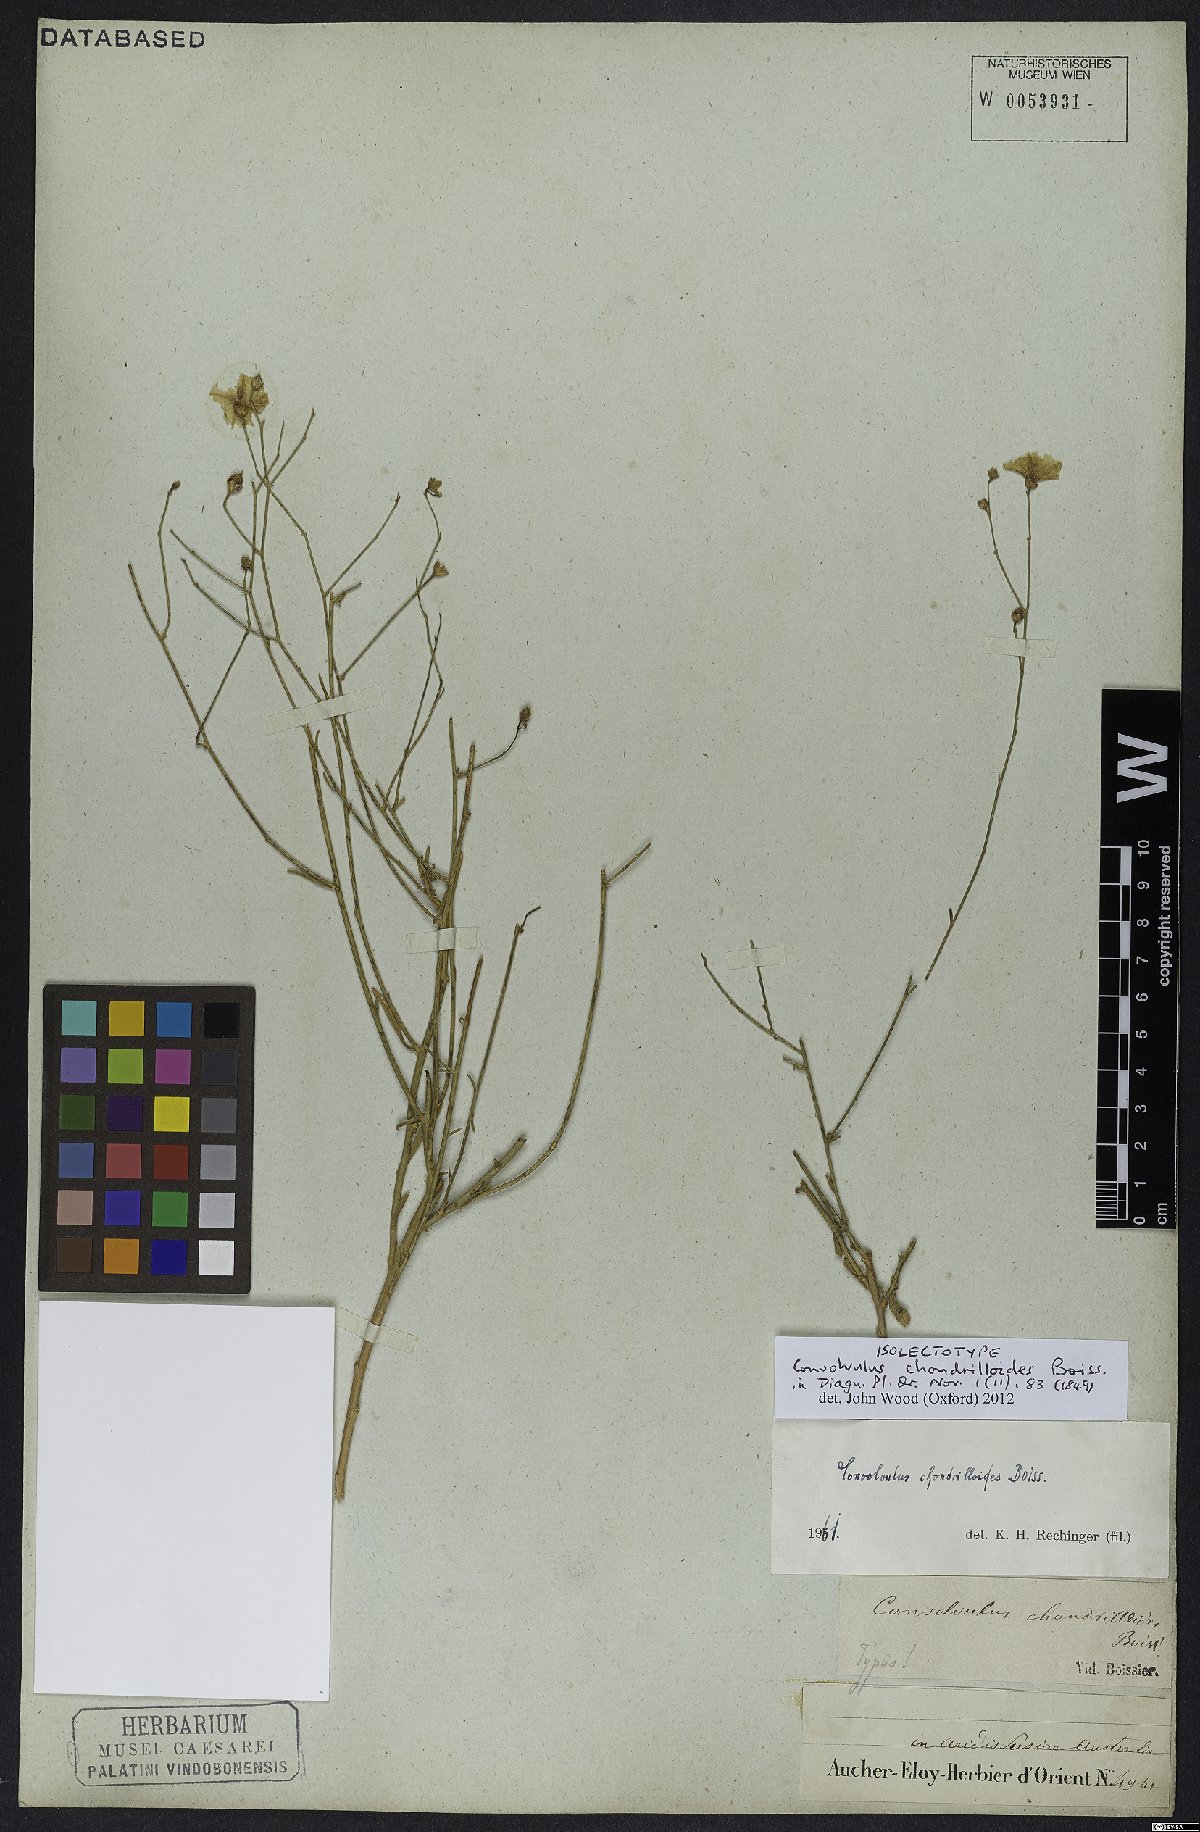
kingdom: Plantae
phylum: Tracheophyta
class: Magnoliopsida
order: Solanales
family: Convolvulaceae
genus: Convolvulus
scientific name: Convolvulus chondrilloides
